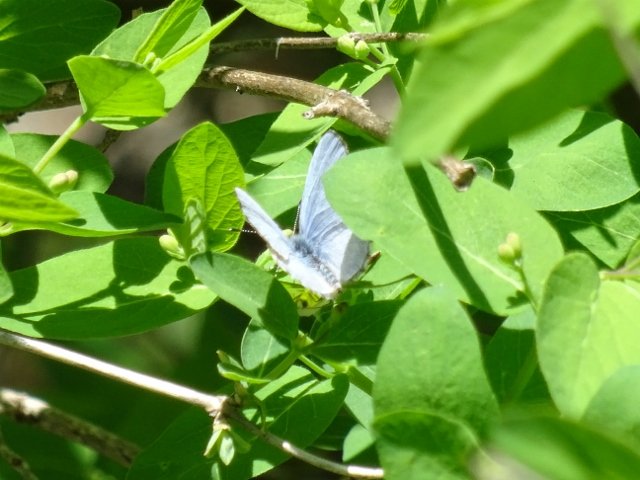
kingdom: Animalia
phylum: Arthropoda
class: Insecta
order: Lepidoptera
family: Lycaenidae
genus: Celastrina
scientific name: Celastrina
